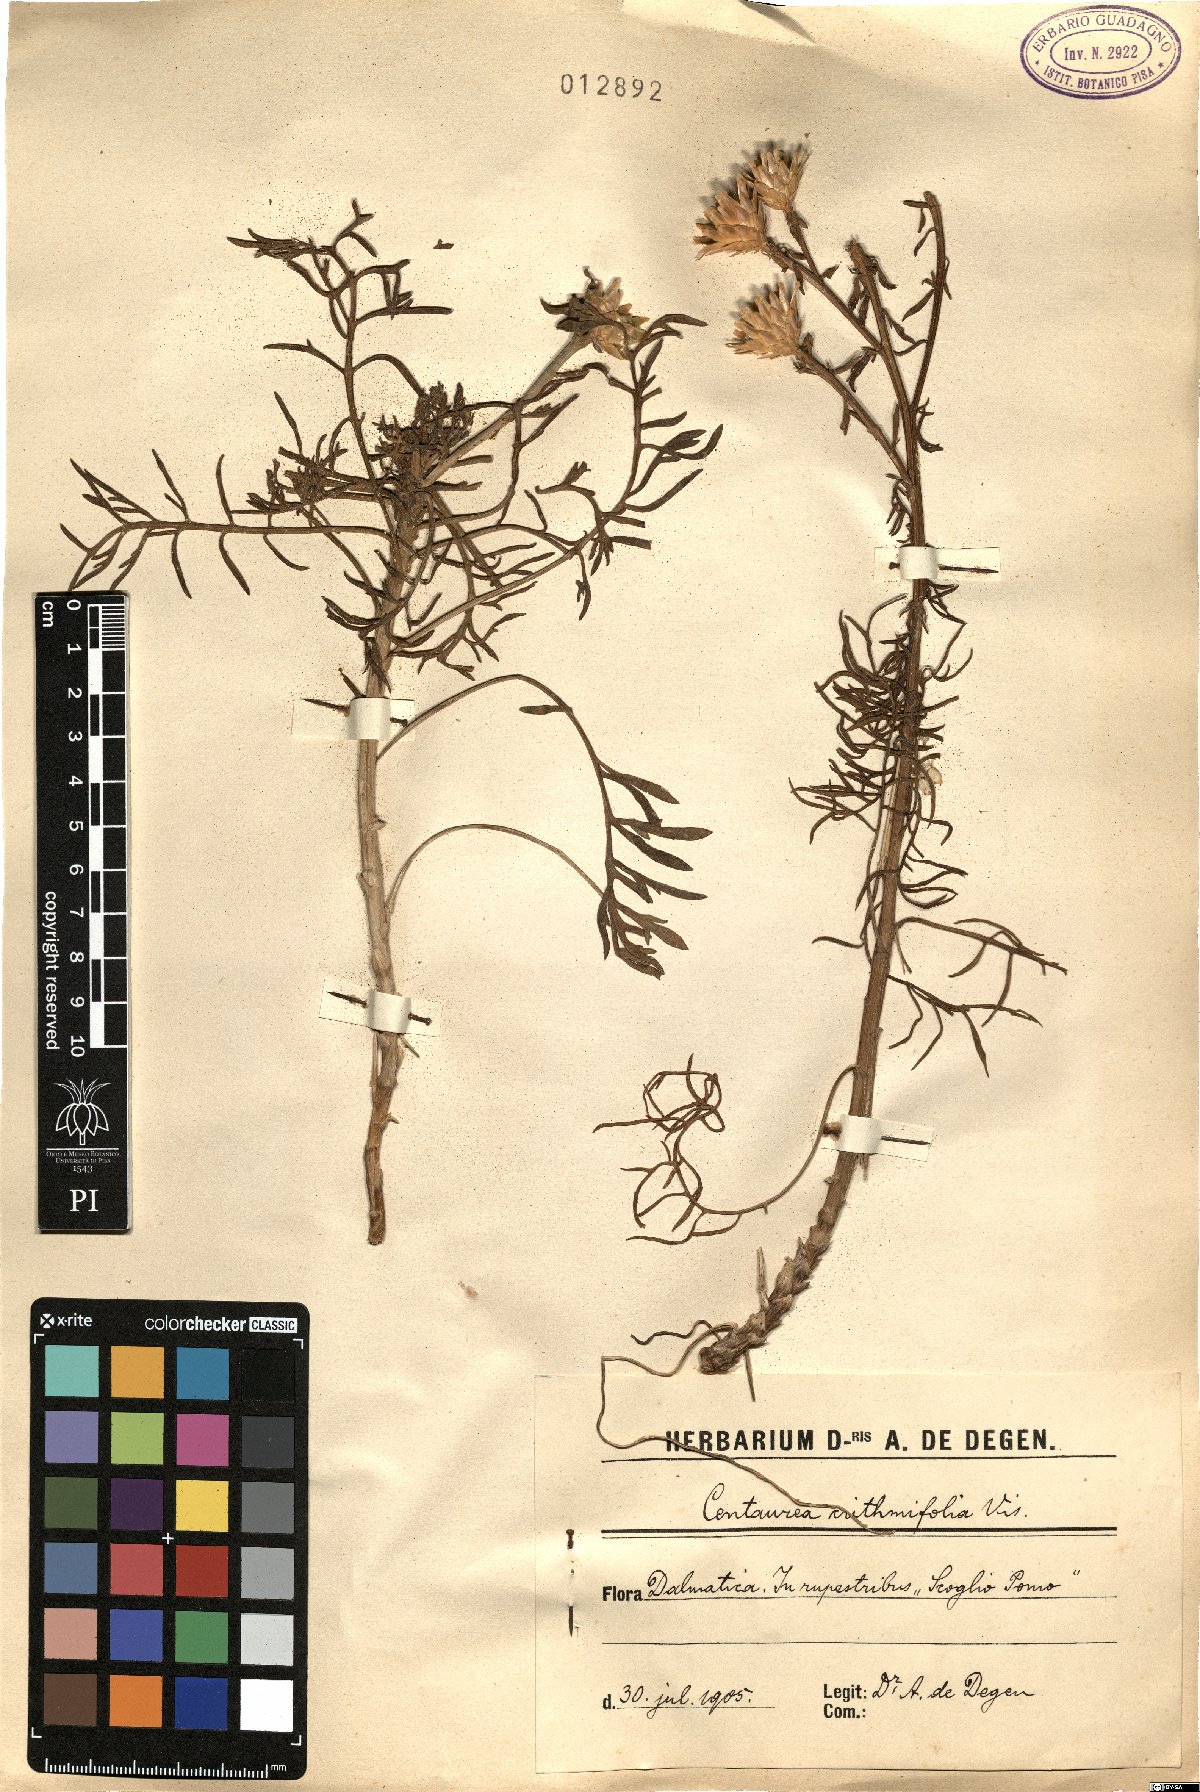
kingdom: Plantae
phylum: Tracheophyta
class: Magnoliopsida
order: Asterales
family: Asteraceae
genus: Centaurea
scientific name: Centaurea crithmifolia
